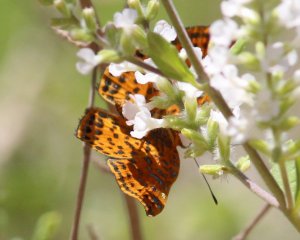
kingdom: Animalia
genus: Caria
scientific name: Caria ino
